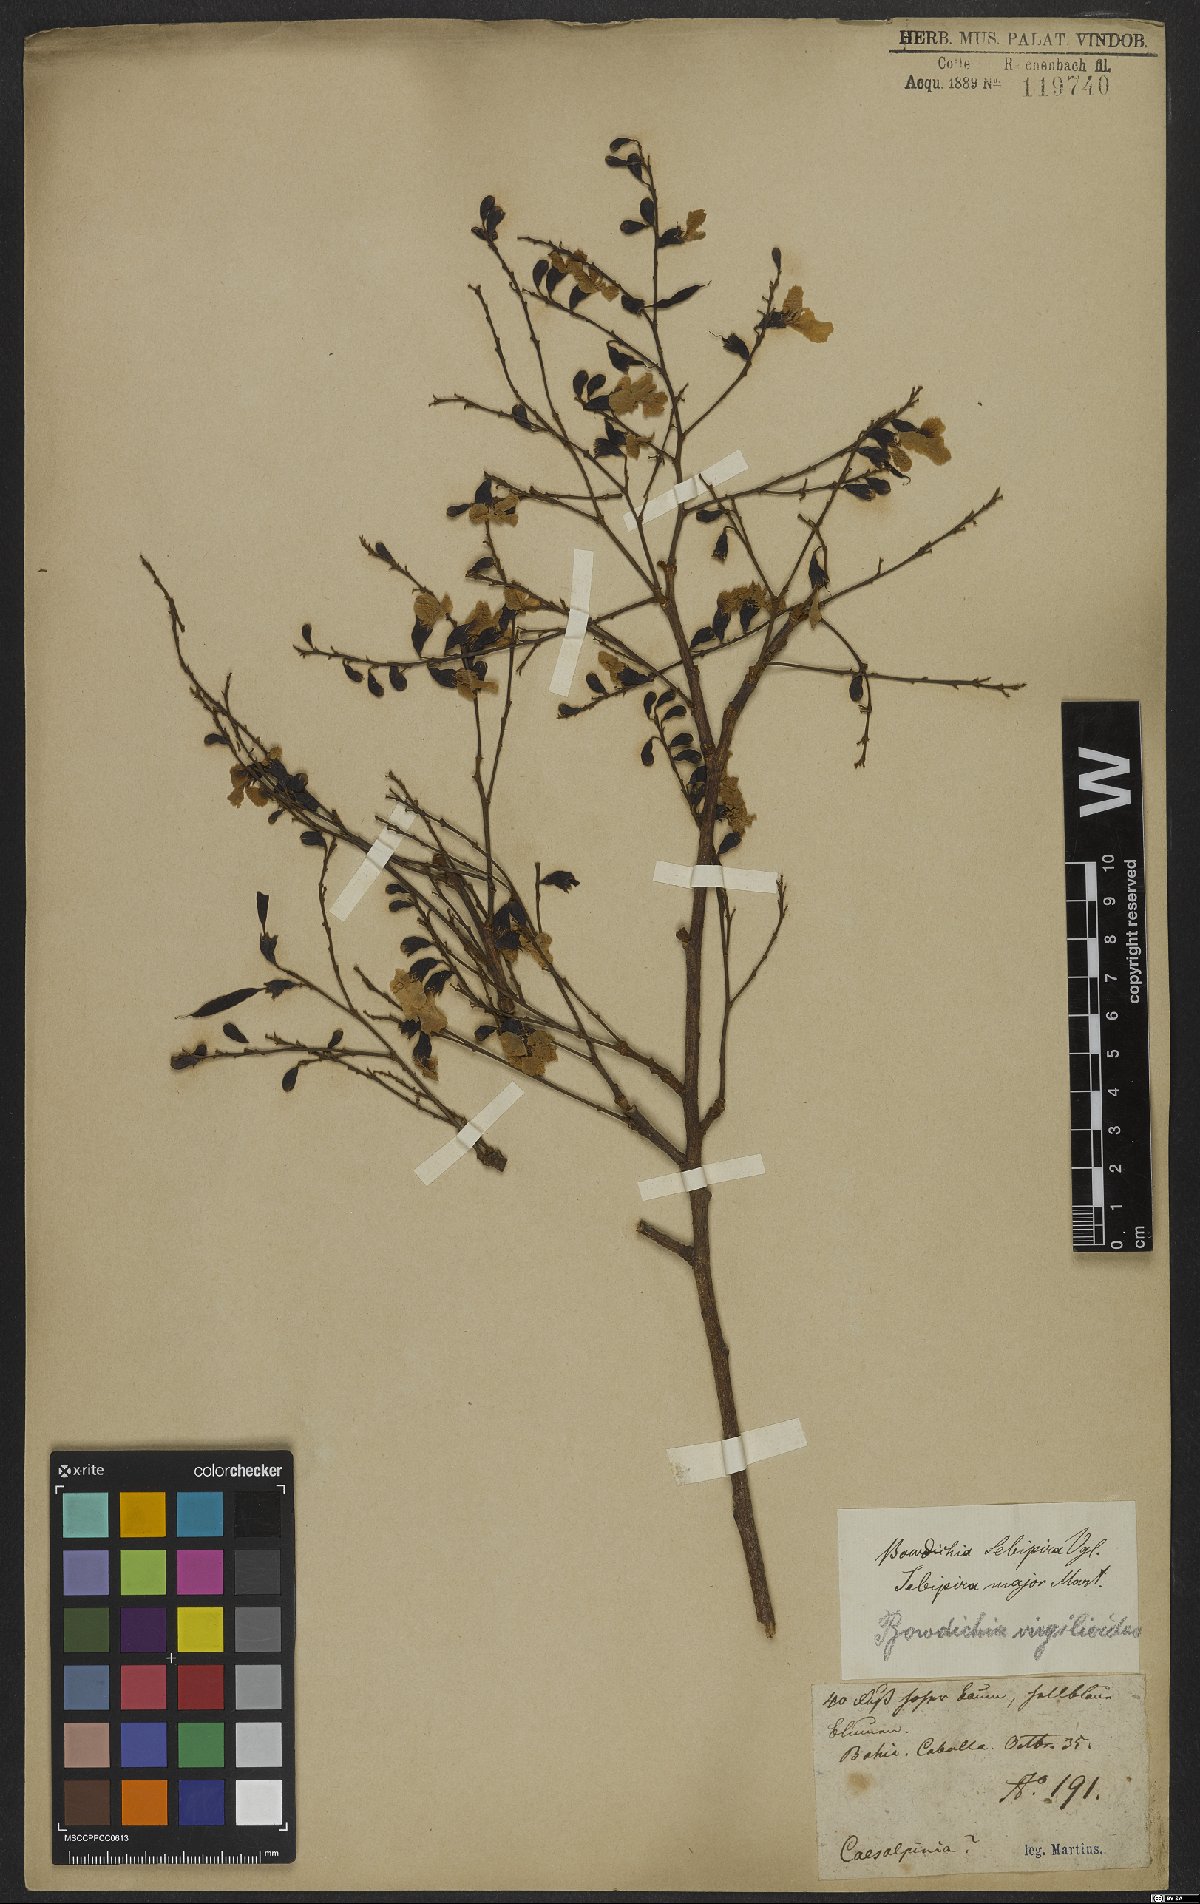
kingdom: Plantae
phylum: Tracheophyta
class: Magnoliopsida
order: Fabales
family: Fabaceae
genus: Bowdichia
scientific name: Bowdichia virgilioides
